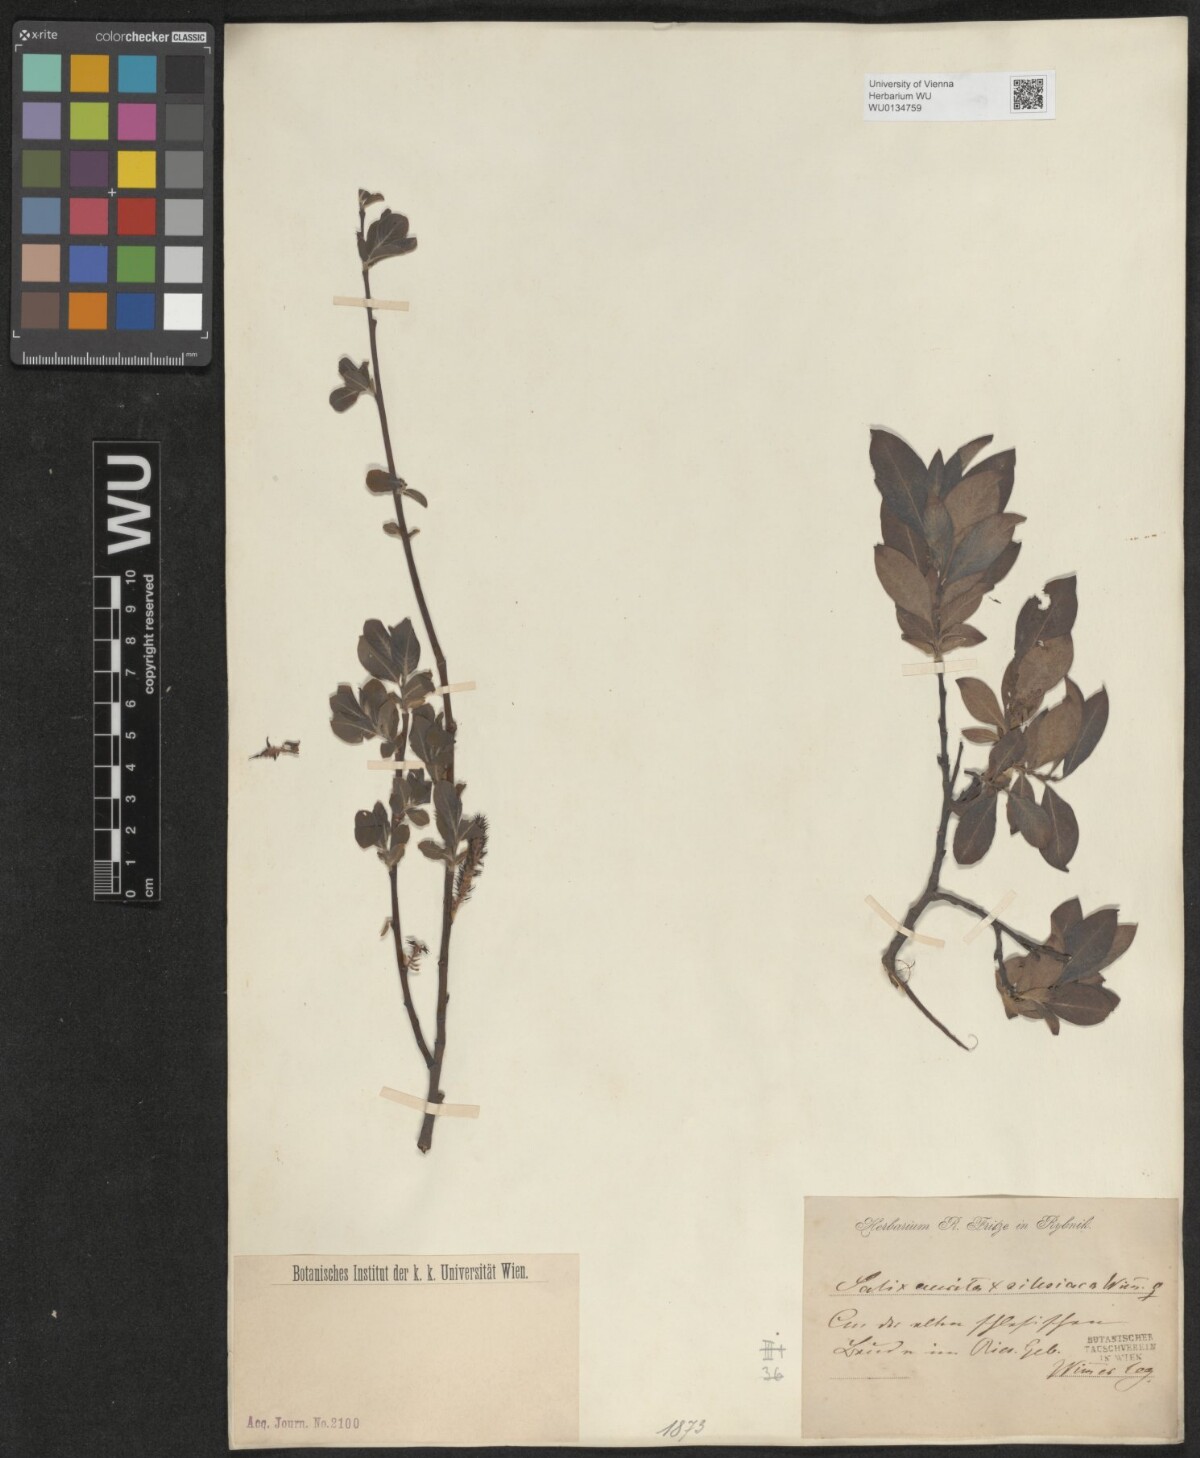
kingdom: Plantae
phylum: Tracheophyta
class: Magnoliopsida
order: Malpighiales
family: Salicaceae
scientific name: Salicaceae
